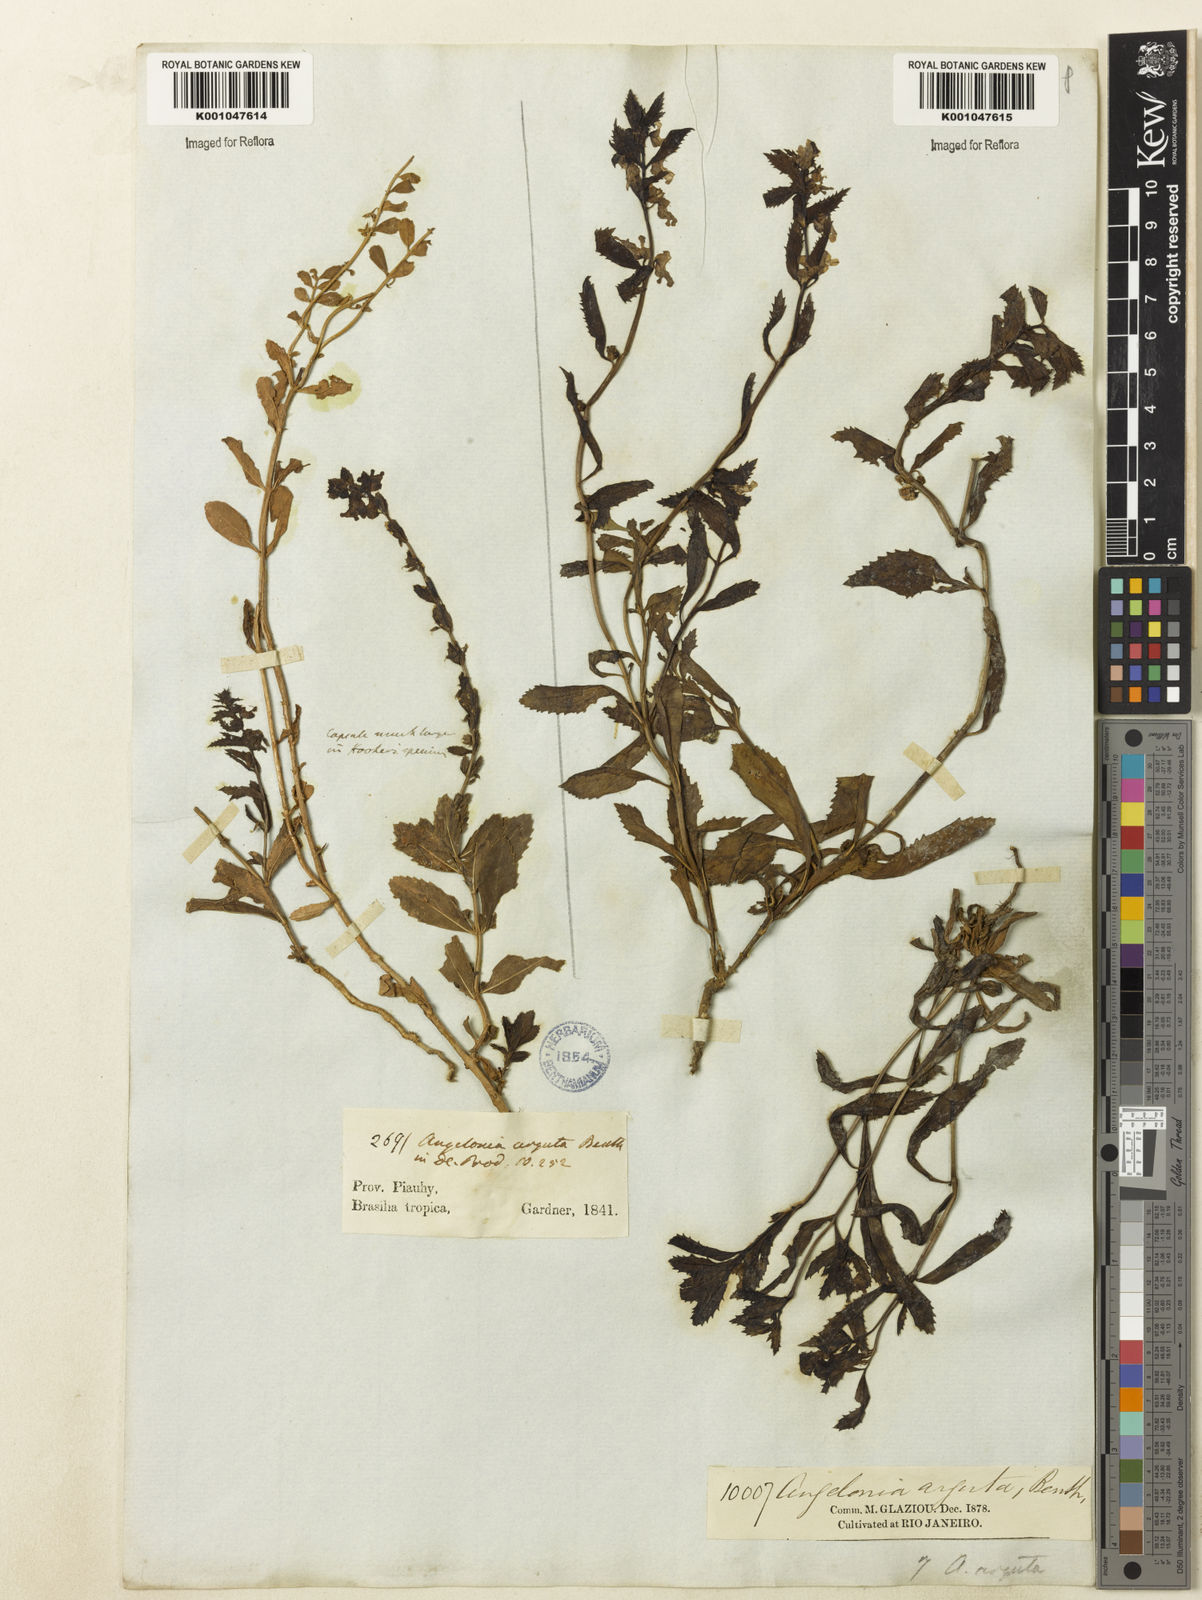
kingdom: Plantae
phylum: Tracheophyta
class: Magnoliopsida
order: Lamiales
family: Plantaginaceae
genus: Angelonia
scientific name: Angelonia arguta
